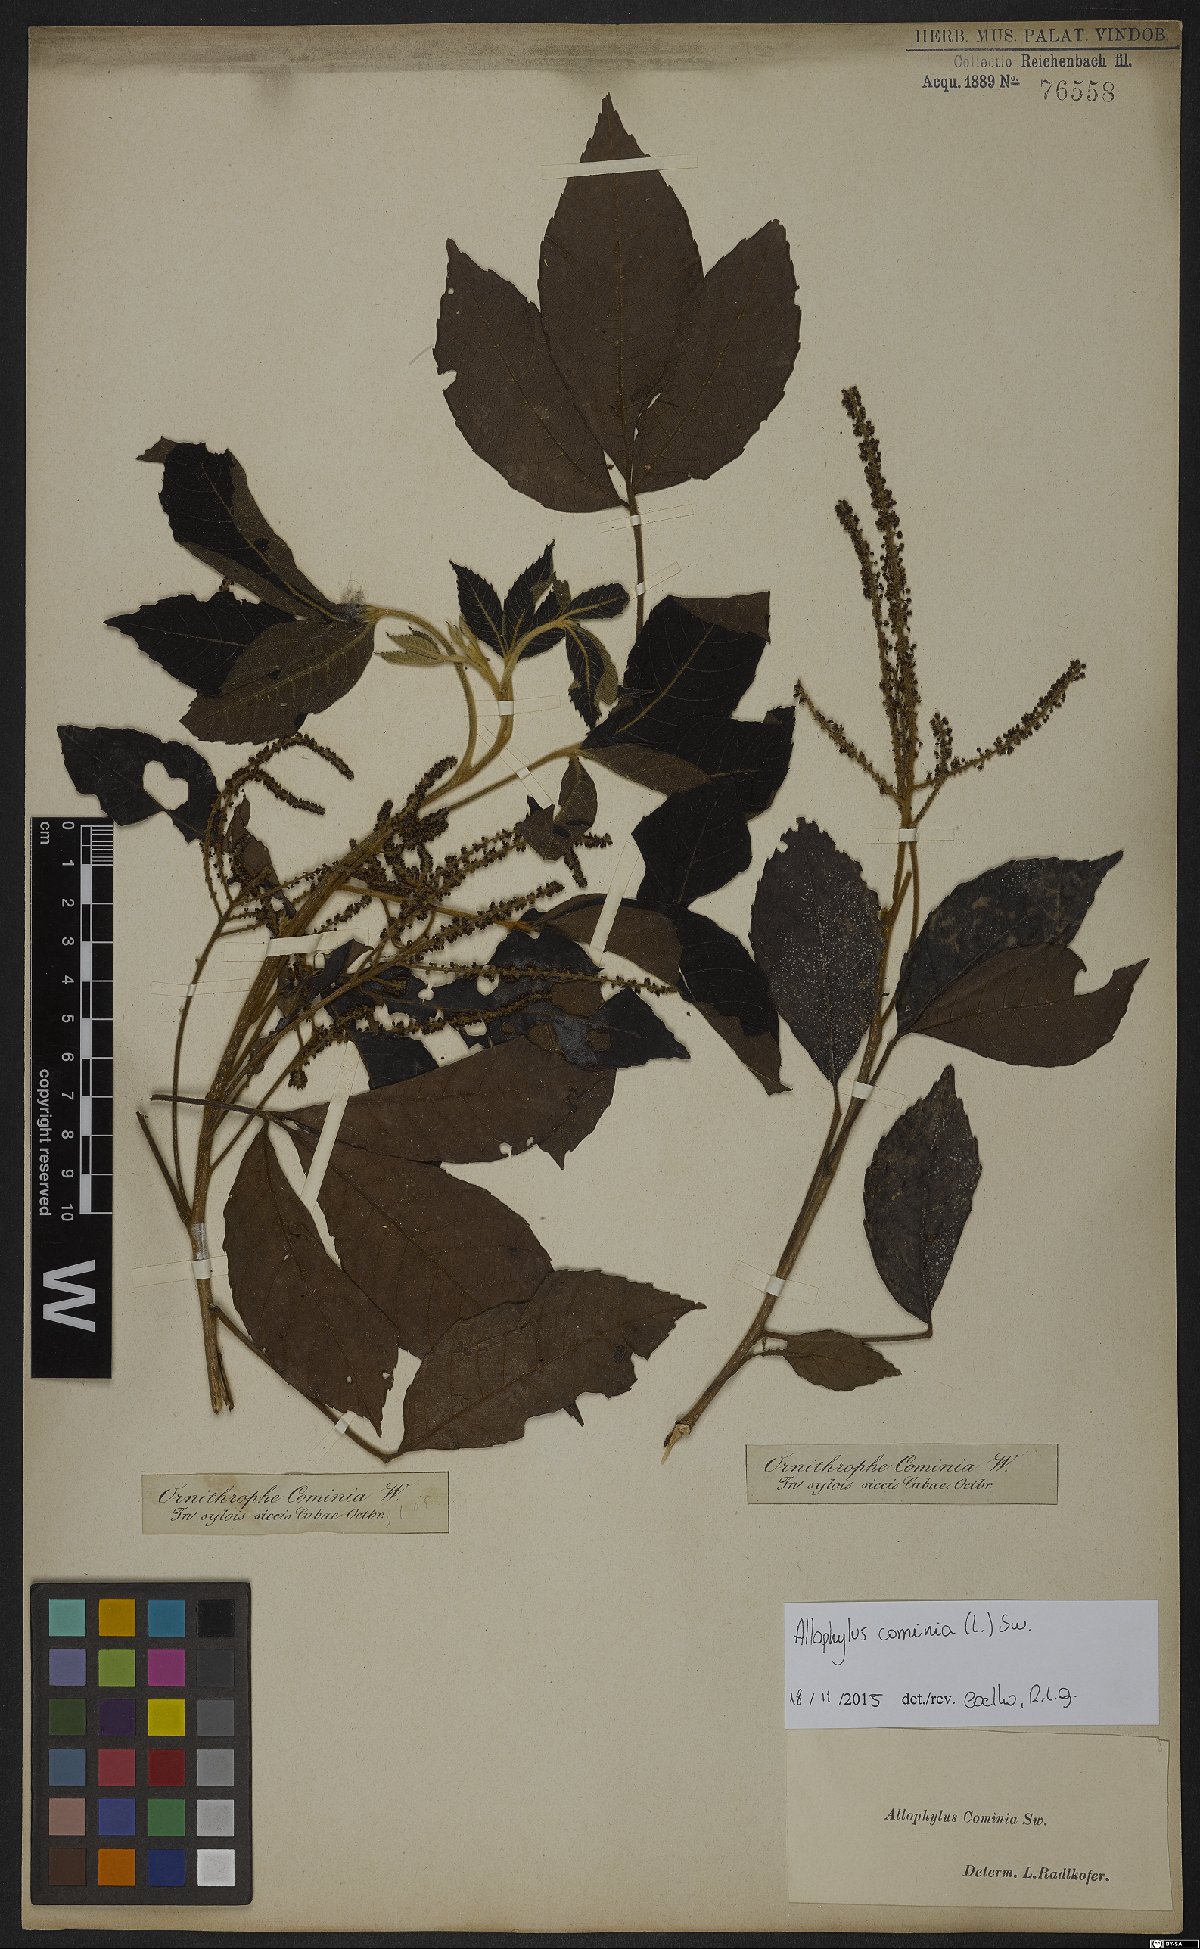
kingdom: Plantae
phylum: Tracheophyta
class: Magnoliopsida
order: Sapindales
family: Sapindaceae
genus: Allophylus
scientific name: Allophylus cominia
